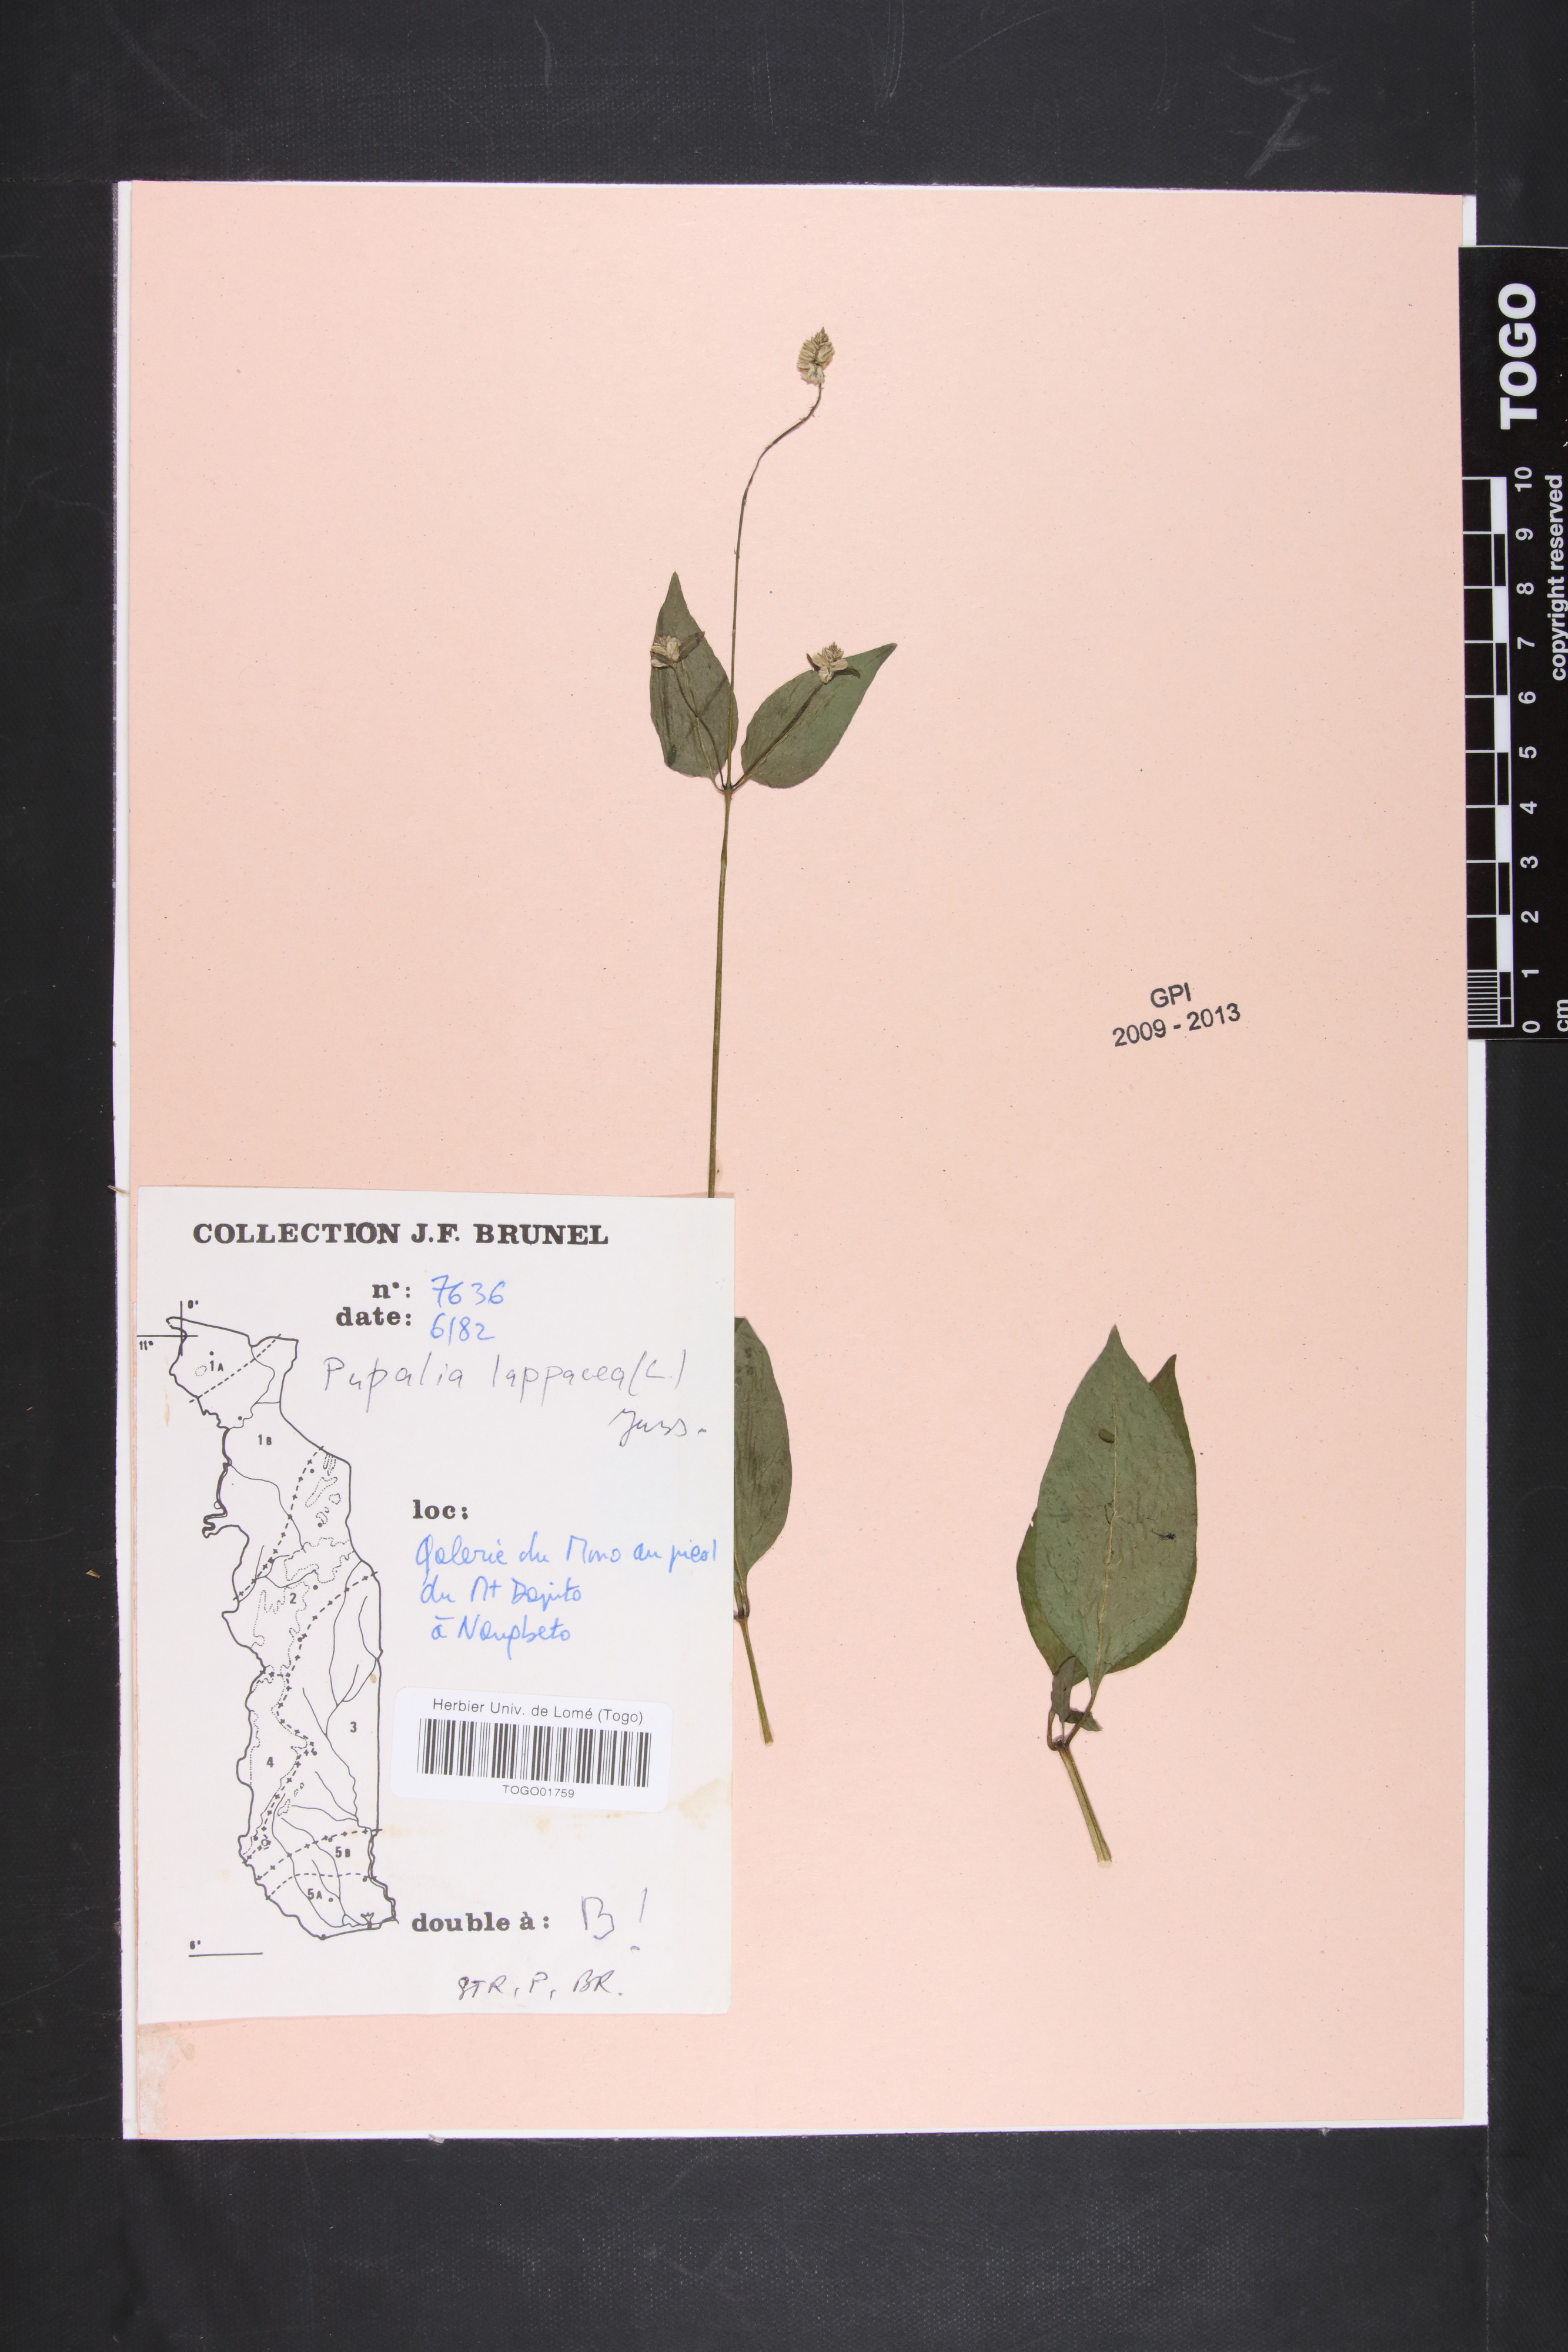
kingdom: Plantae
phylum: Tracheophyta
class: Magnoliopsida
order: Caryophyllales
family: Amaranthaceae
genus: Pupalia
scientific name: Pupalia lappacea
